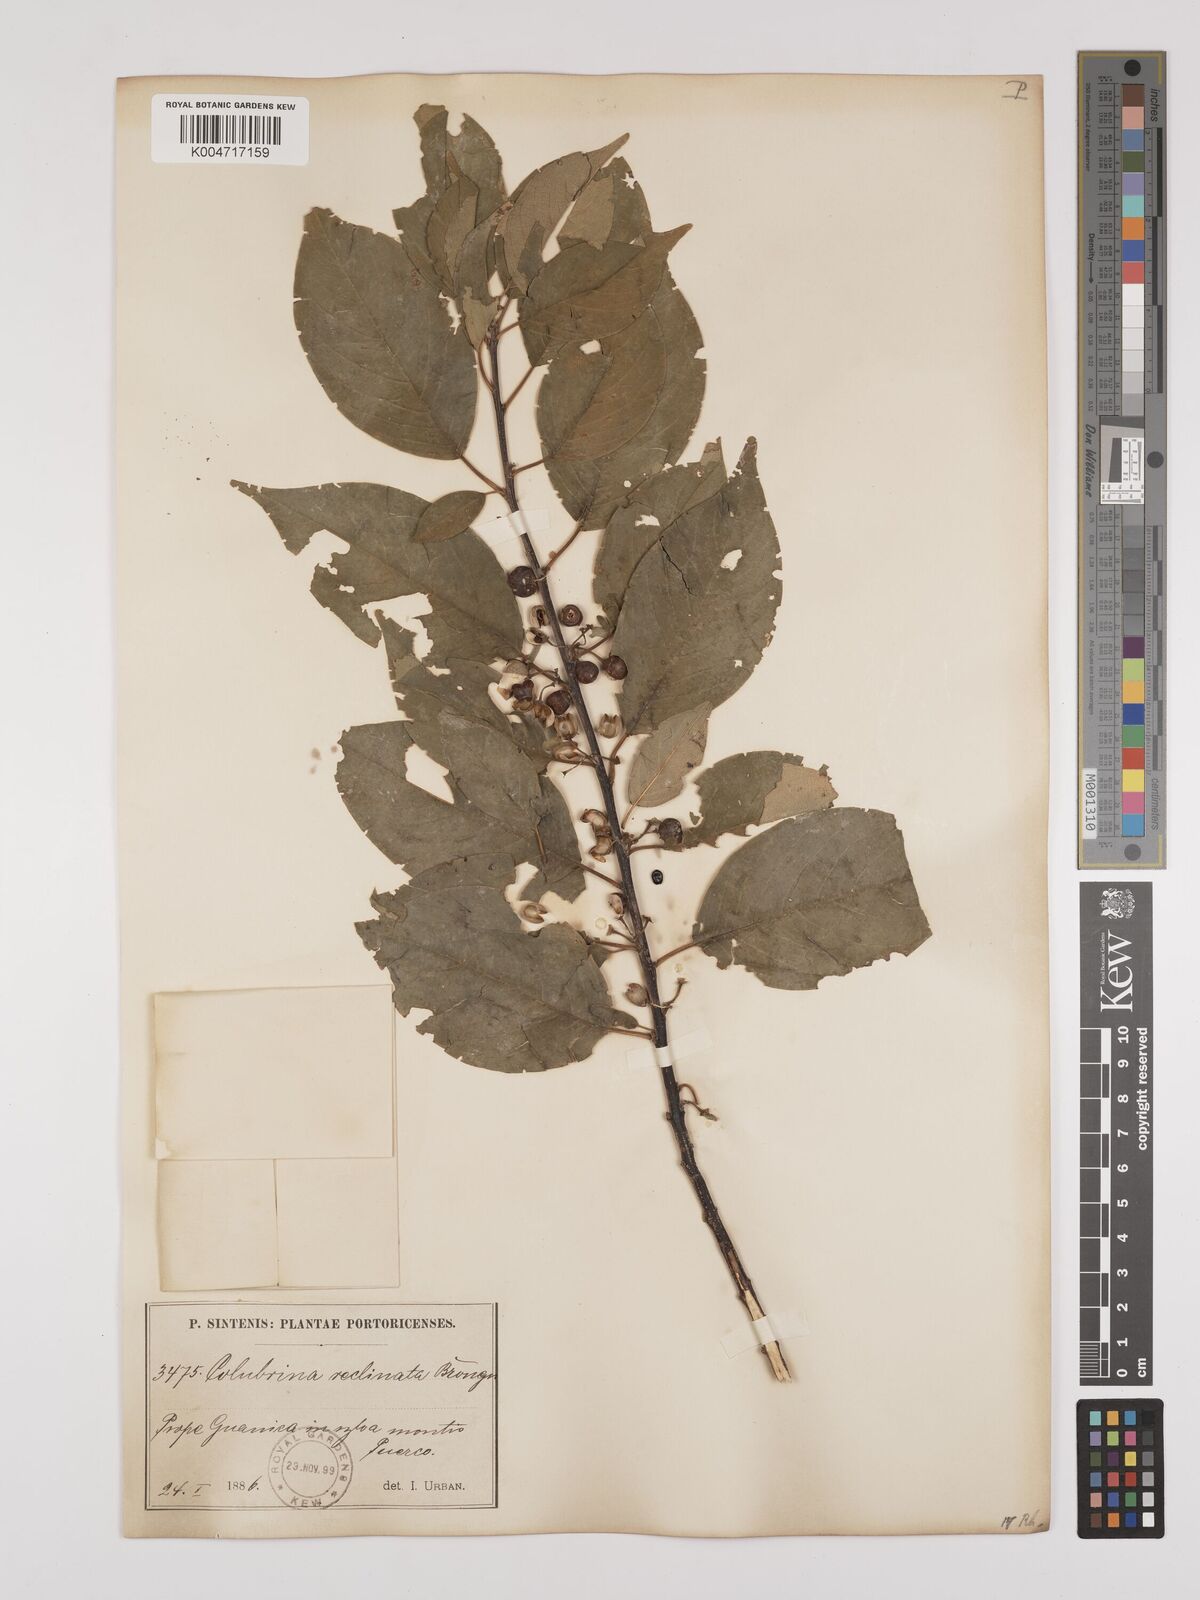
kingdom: Plantae
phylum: Tracheophyta
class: Magnoliopsida
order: Rosales
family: Rhamnaceae
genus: Colubrina
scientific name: Colubrina elliptica
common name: Soldierwood
